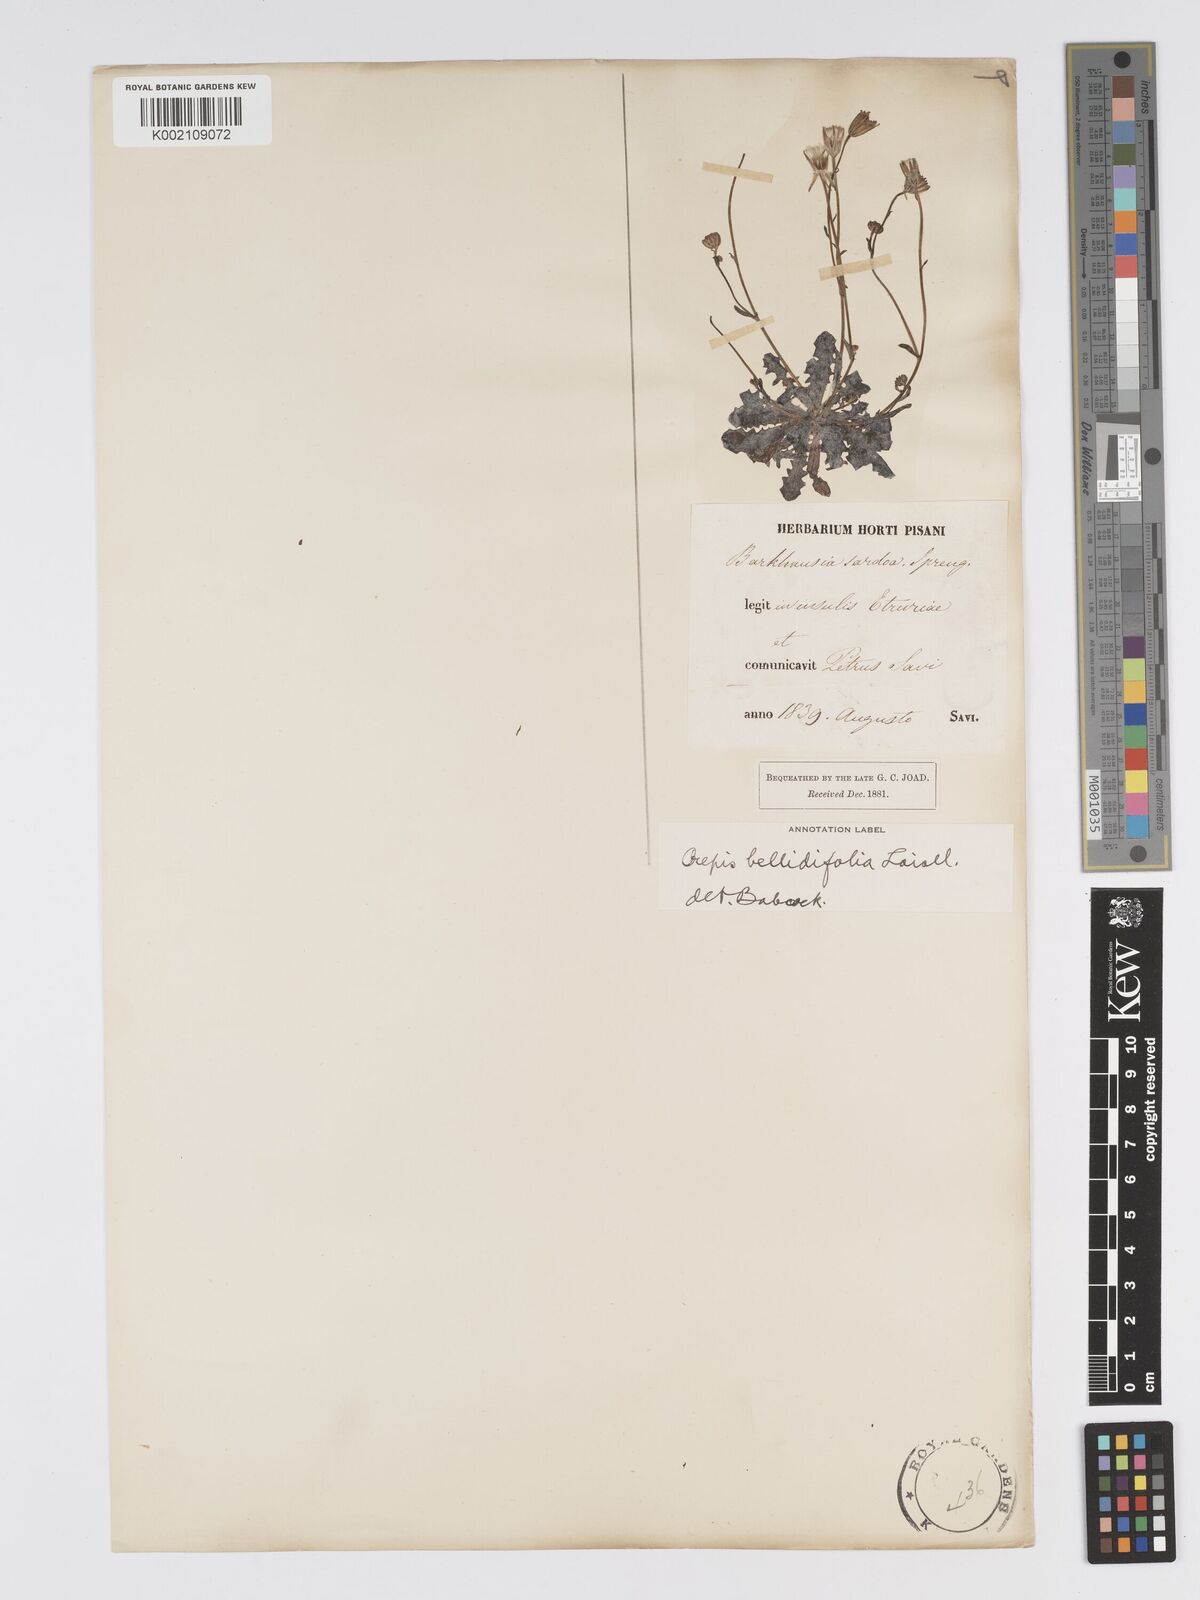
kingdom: Plantae
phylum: Tracheophyta
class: Magnoliopsida
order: Asterales
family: Asteraceae
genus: Crepis
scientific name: Crepis bellidifolia
